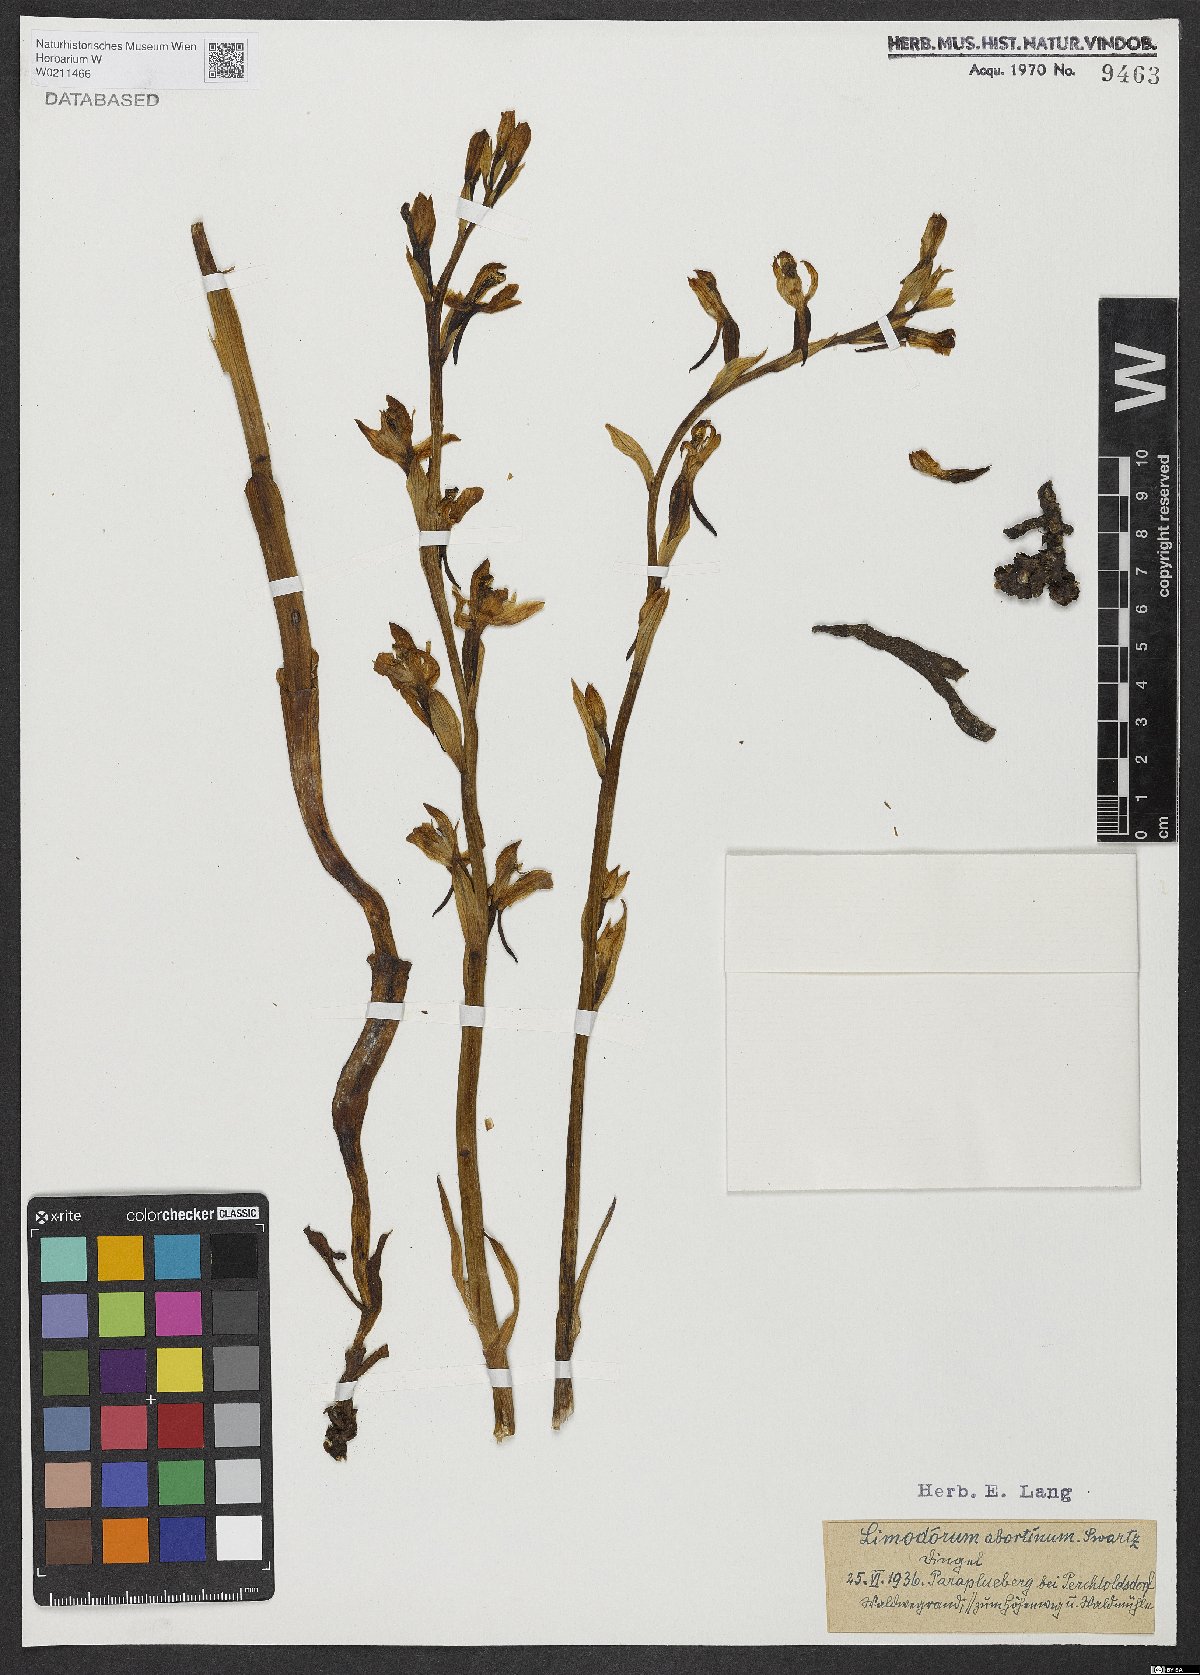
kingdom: Plantae
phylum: Tracheophyta
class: Liliopsida
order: Asparagales
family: Orchidaceae
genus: Limodorum
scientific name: Limodorum abortivum
